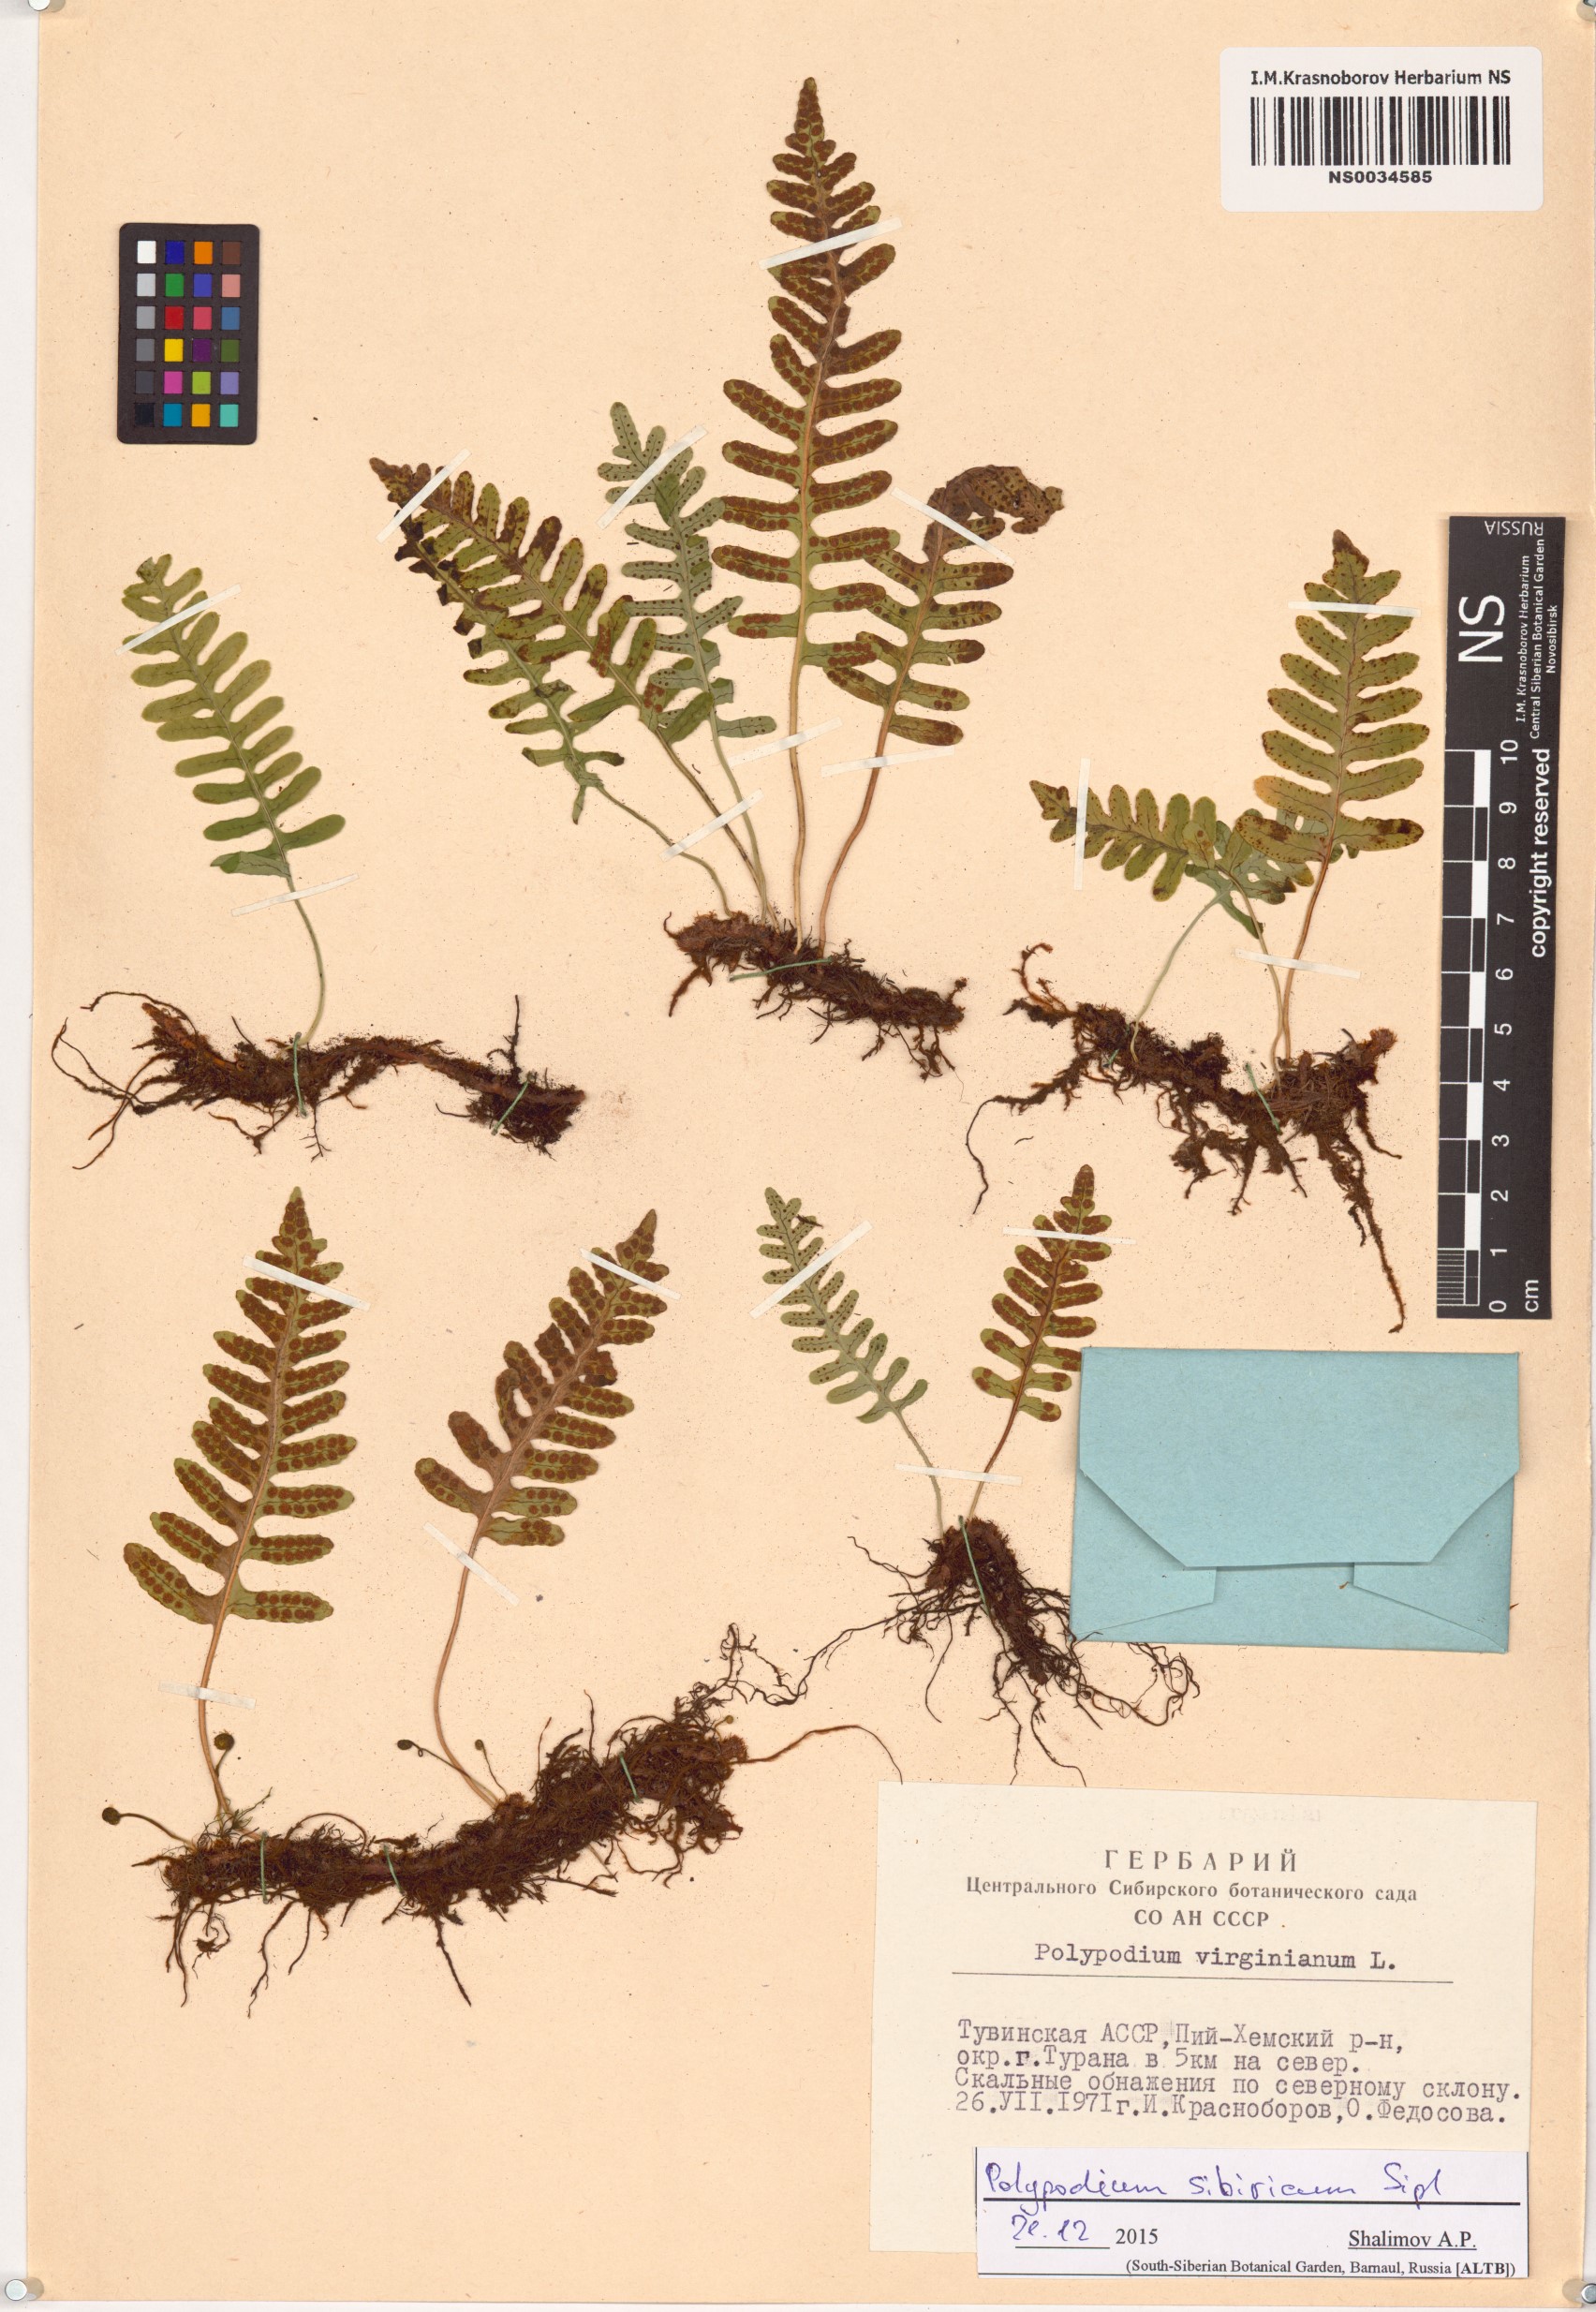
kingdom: Plantae
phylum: Tracheophyta
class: Polypodiopsida
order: Polypodiales
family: Polypodiaceae
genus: Polypodium
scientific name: Polypodium sibiricum
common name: Siberian polypody
